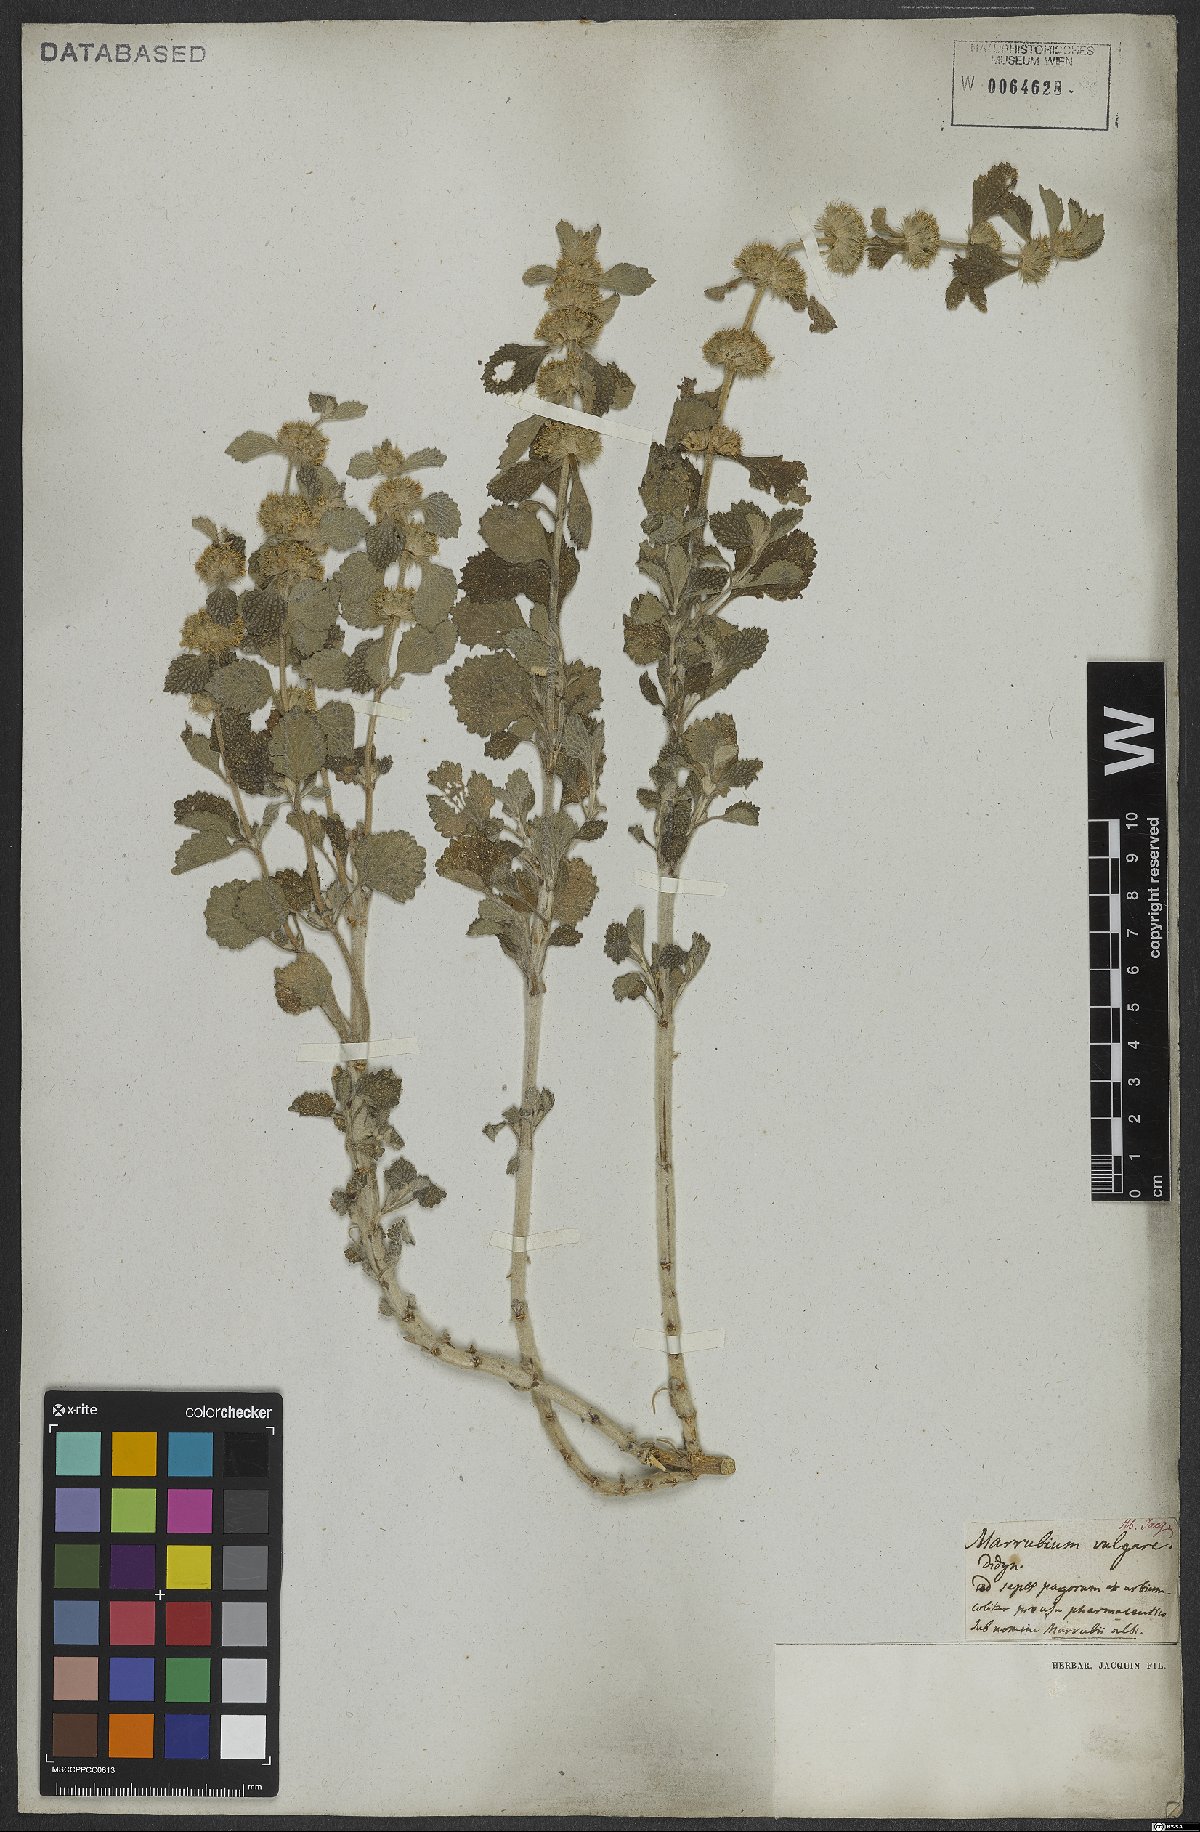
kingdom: Plantae
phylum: Tracheophyta
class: Magnoliopsida
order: Lamiales
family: Lamiaceae
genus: Marrubium
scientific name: Marrubium vulgare
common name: Horehound
